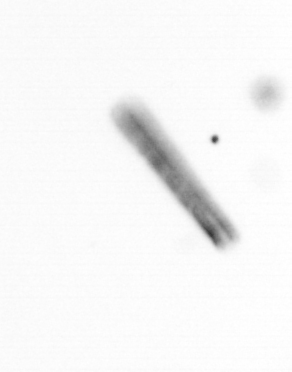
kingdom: Chromista
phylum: Ochrophyta
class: Bacillariophyceae
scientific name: Bacillariophyceae
